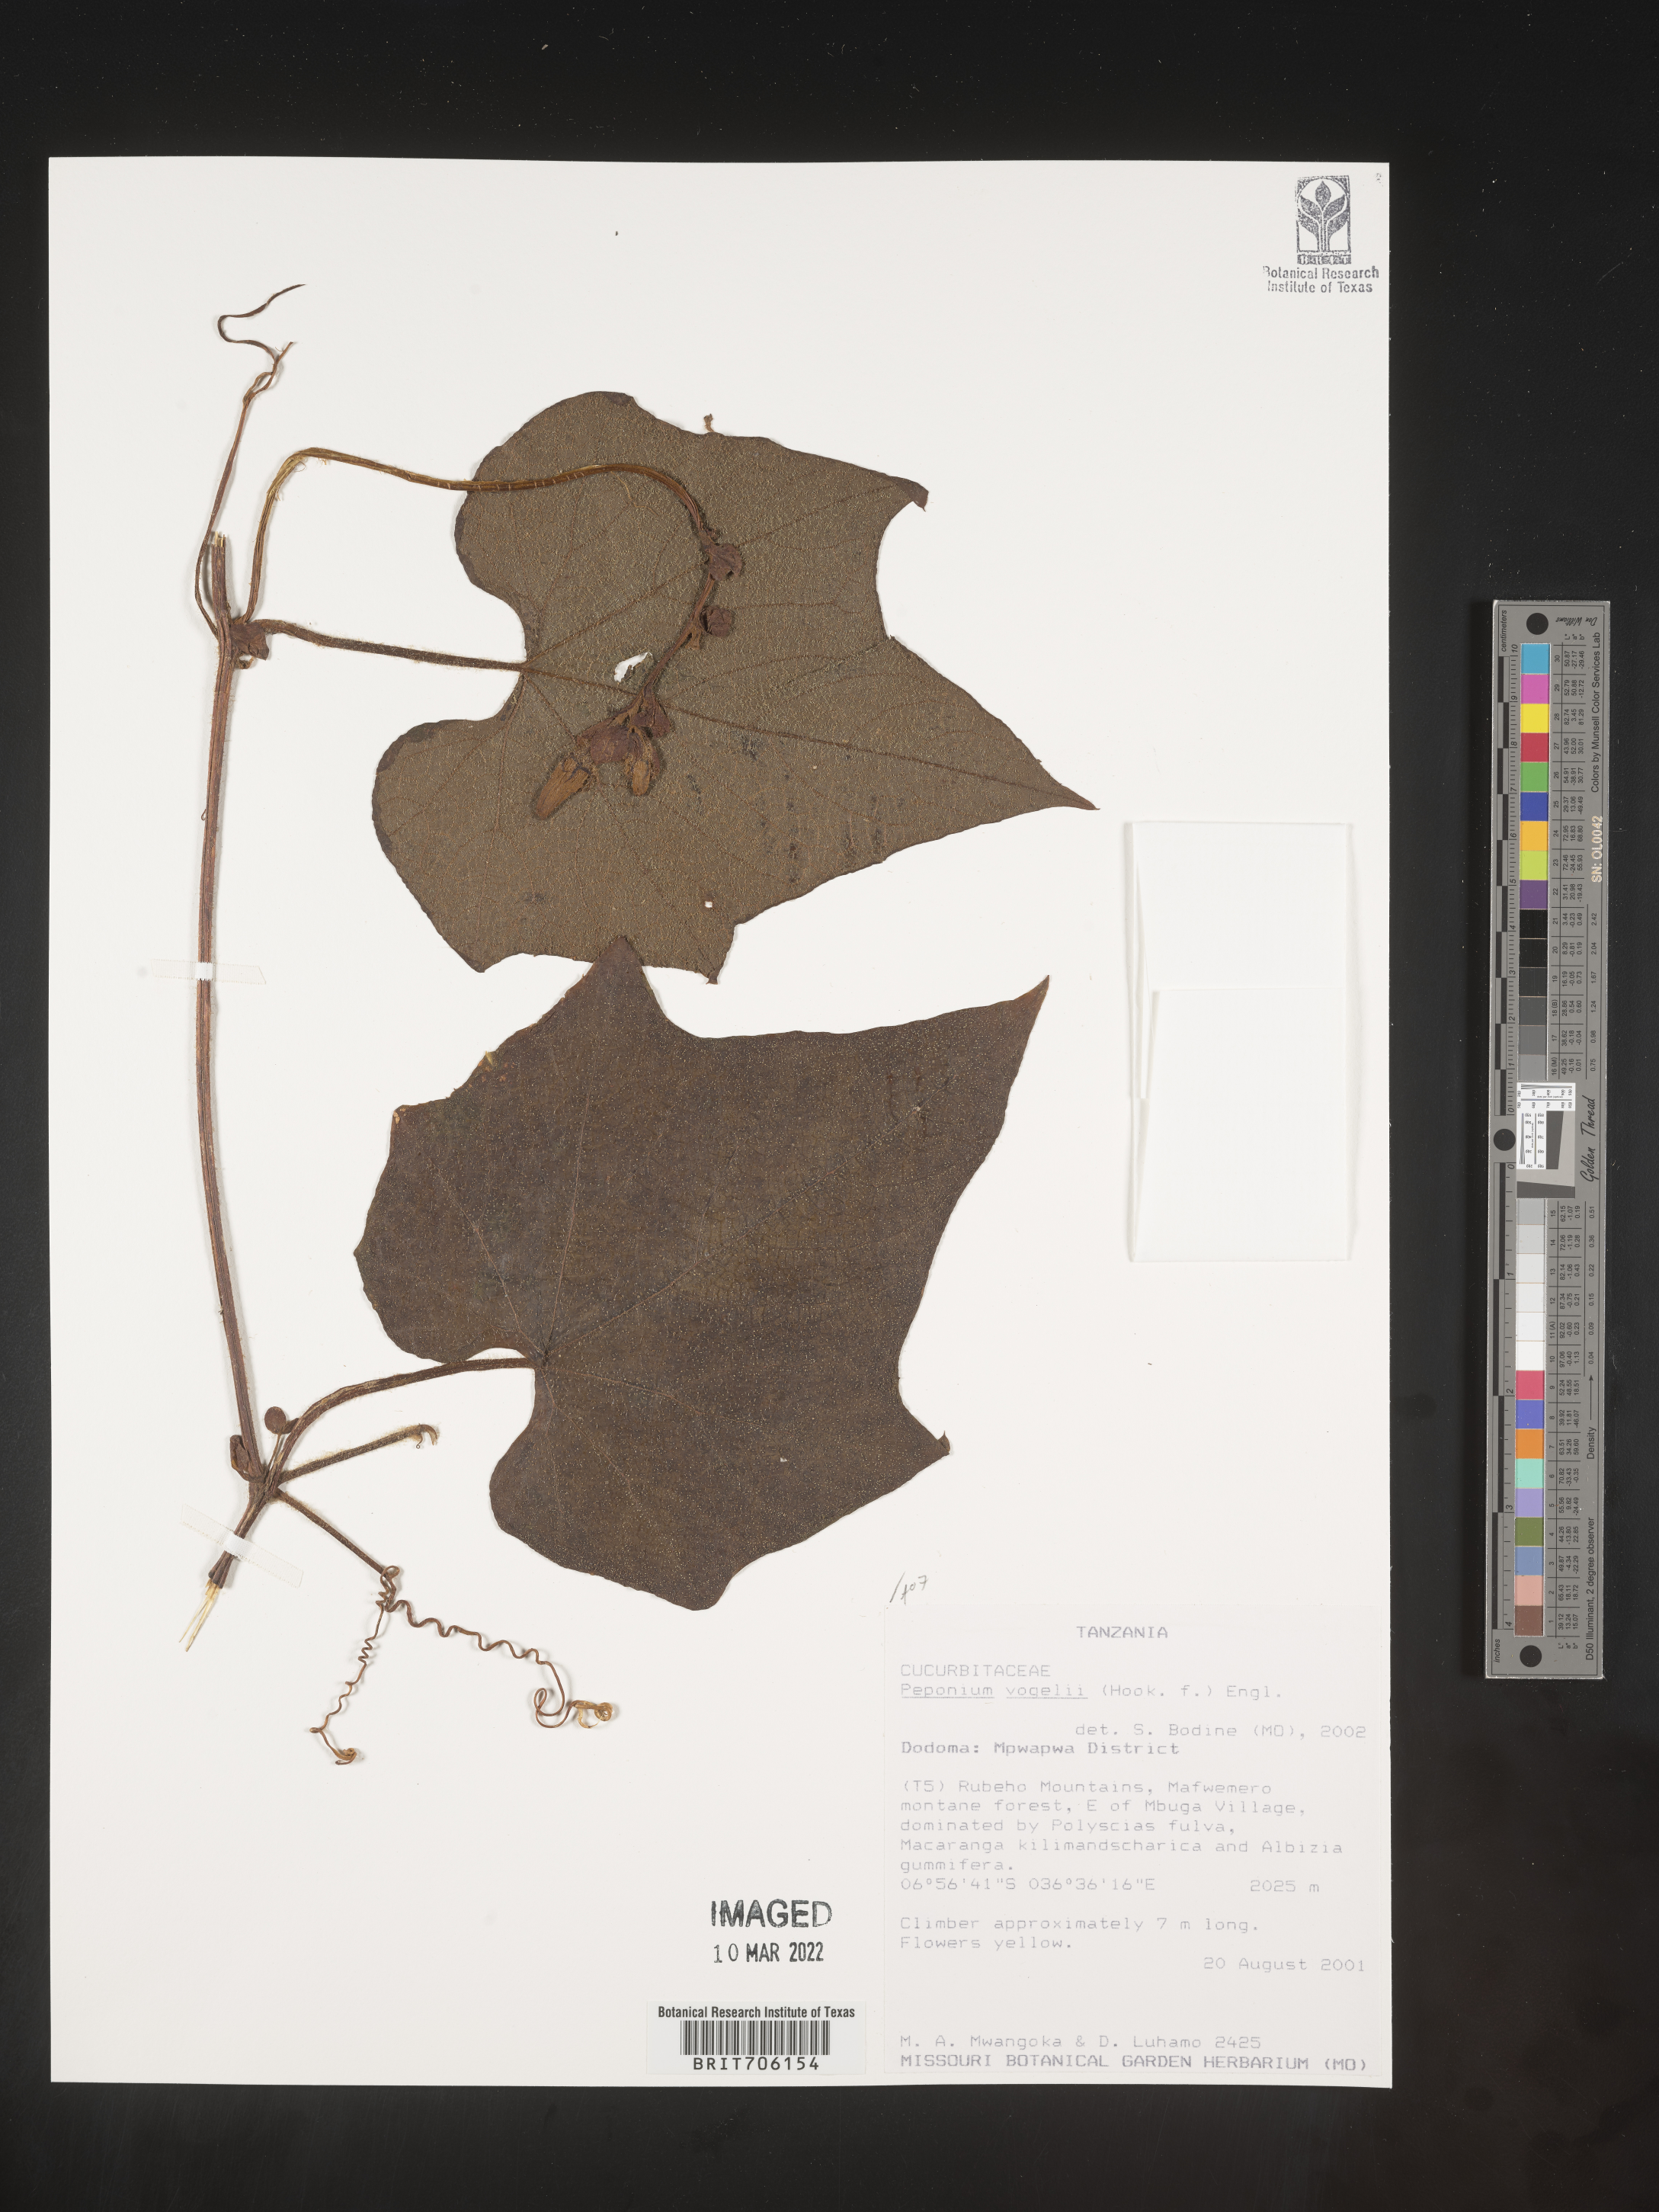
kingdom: Plantae
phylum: Tracheophyta
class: Magnoliopsida
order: Cucurbitales
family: Cucurbitaceae
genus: Peponium
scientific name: Peponium
